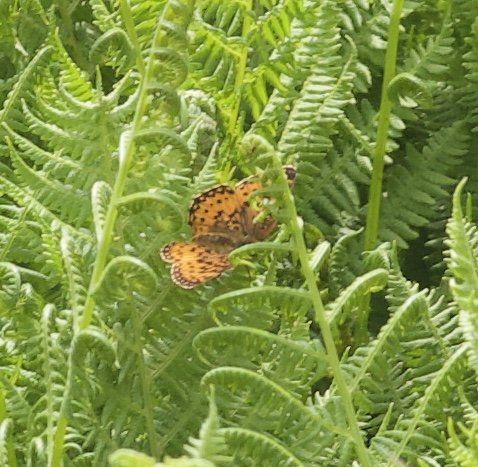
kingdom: Animalia
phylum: Arthropoda
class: Insecta
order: Lepidoptera
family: Nymphalidae
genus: Boloria
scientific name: Boloria selene
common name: Silver-bordered Fritillary
